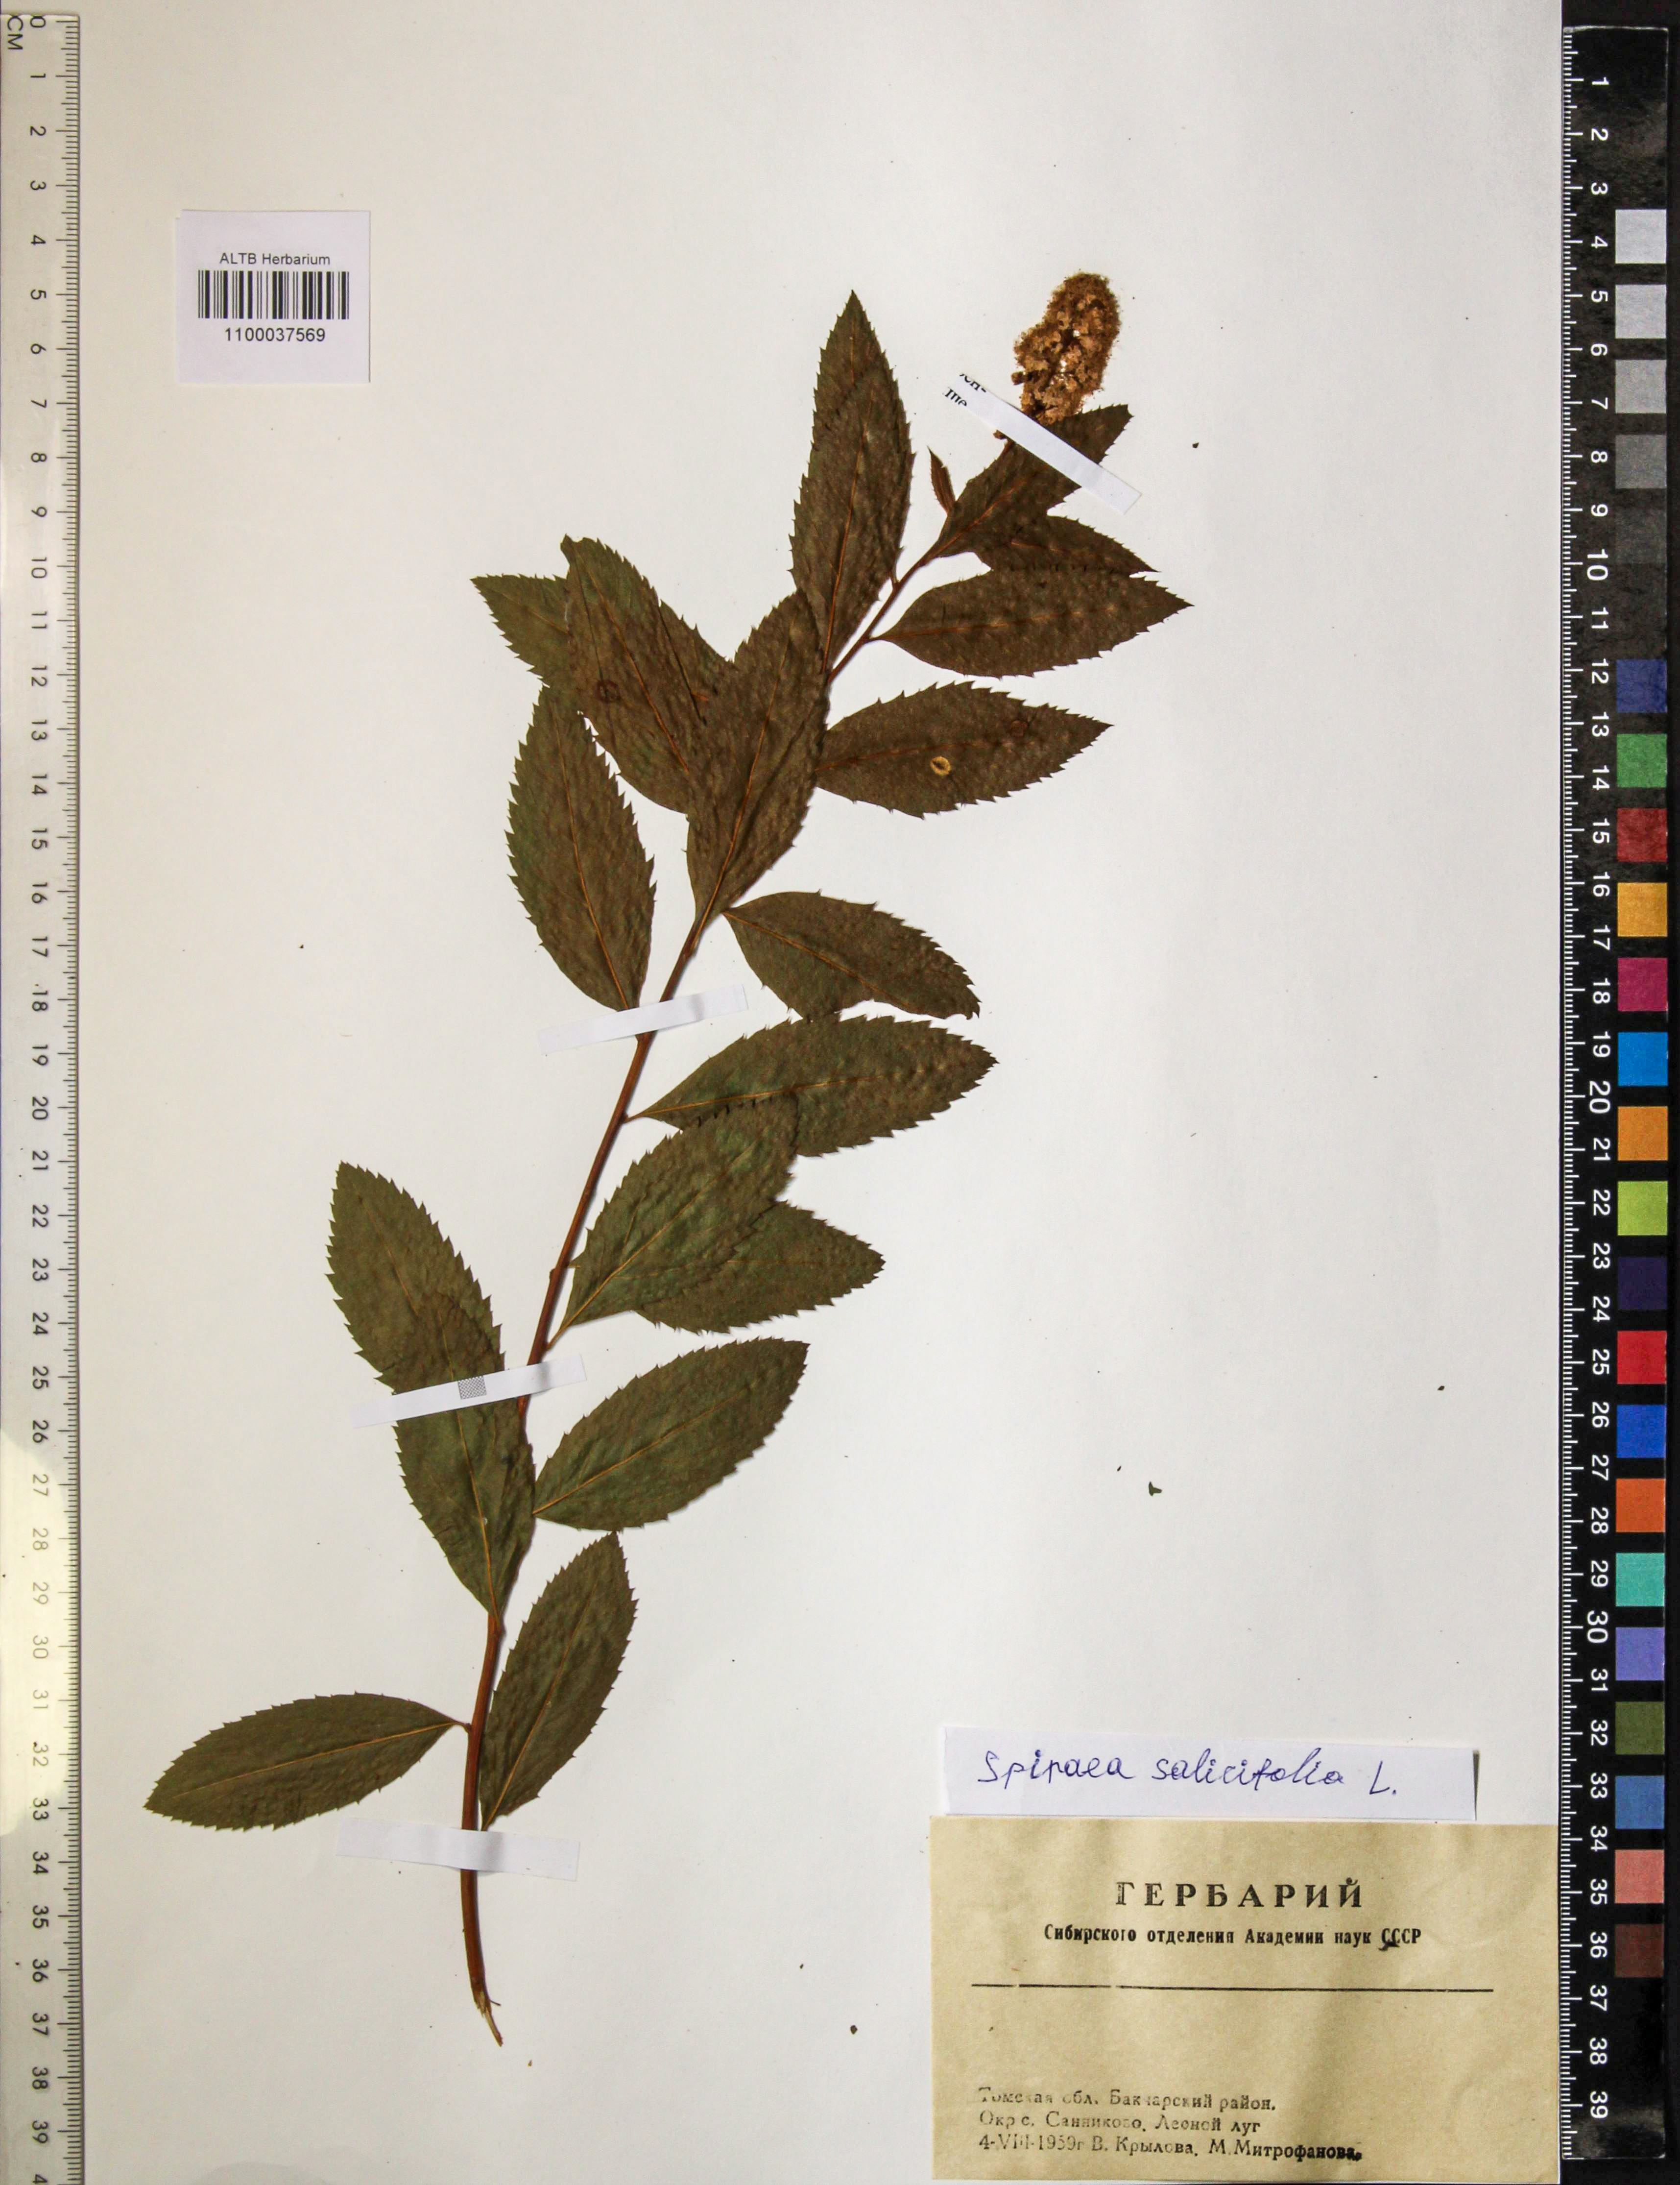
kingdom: Plantae
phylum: Tracheophyta
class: Magnoliopsida
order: Rosales
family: Rosaceae
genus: Spiraea
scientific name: Spiraea salicifolia
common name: Bridewort
